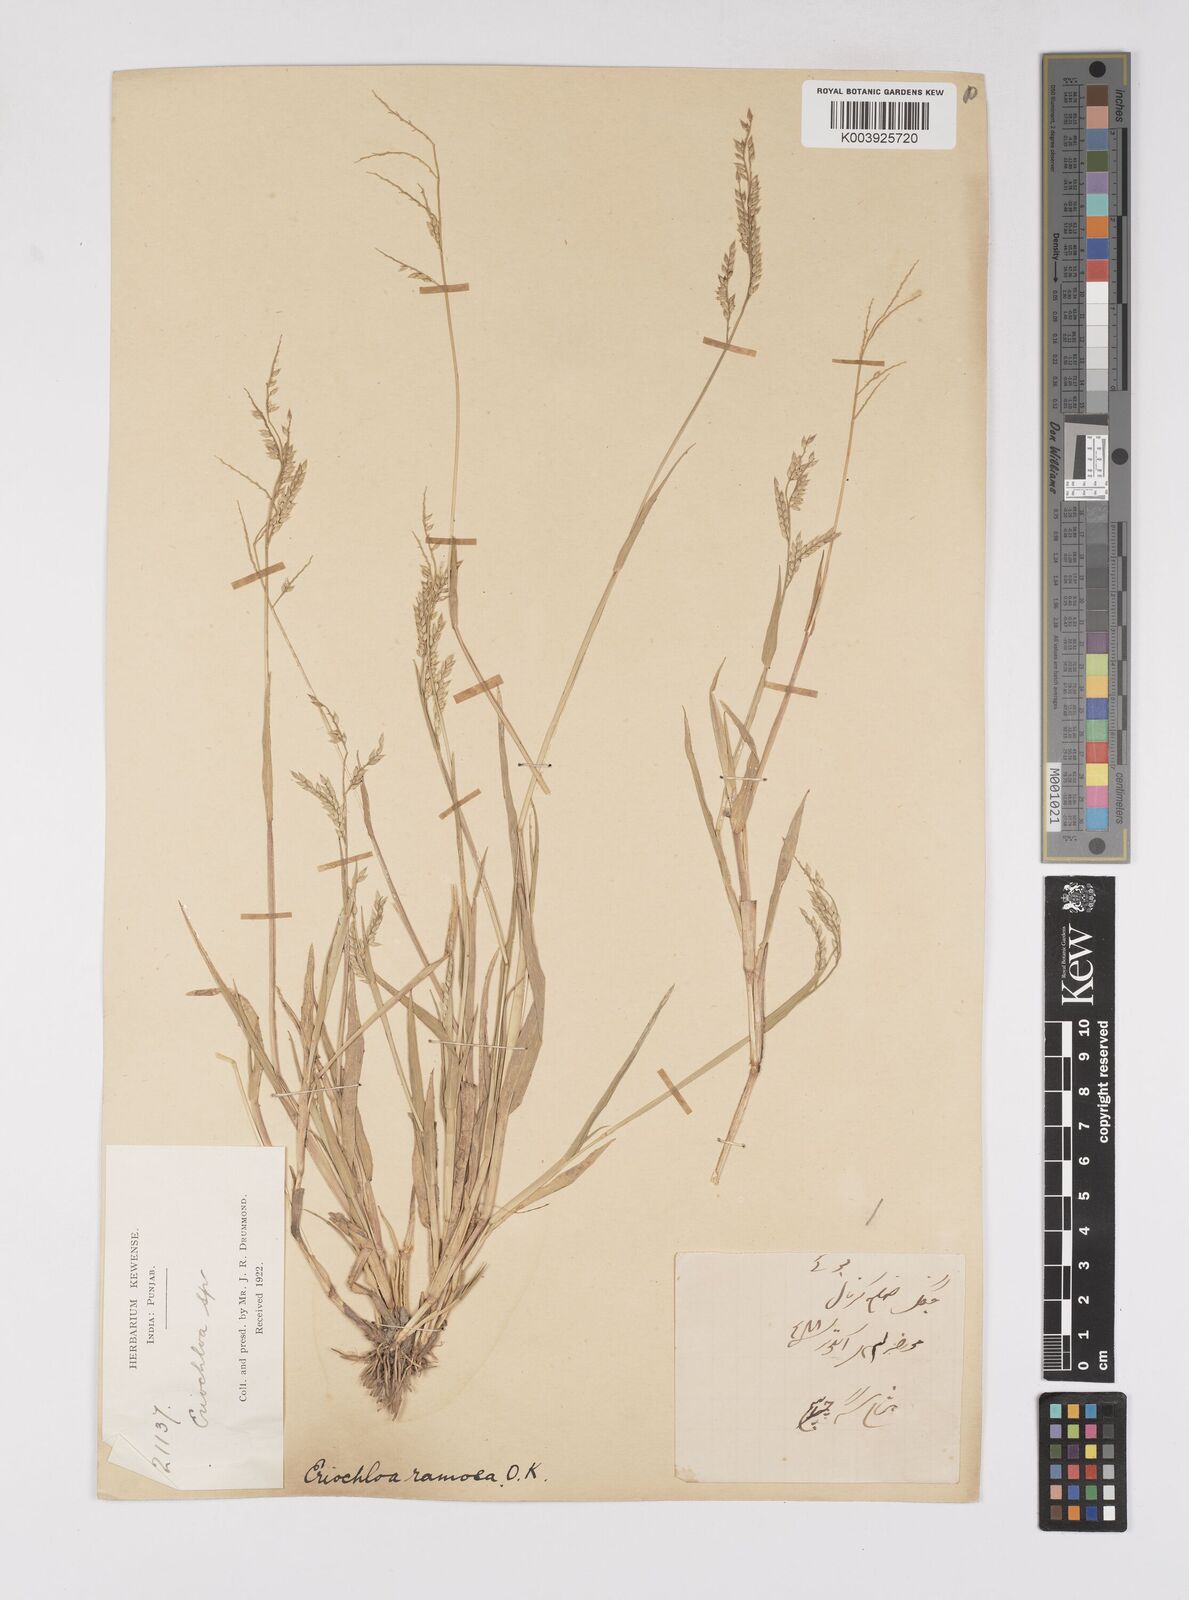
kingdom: Plantae
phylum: Tracheophyta
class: Liliopsida
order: Poales
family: Poaceae
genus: Eriochloa
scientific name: Eriochloa procera
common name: Spring grass
